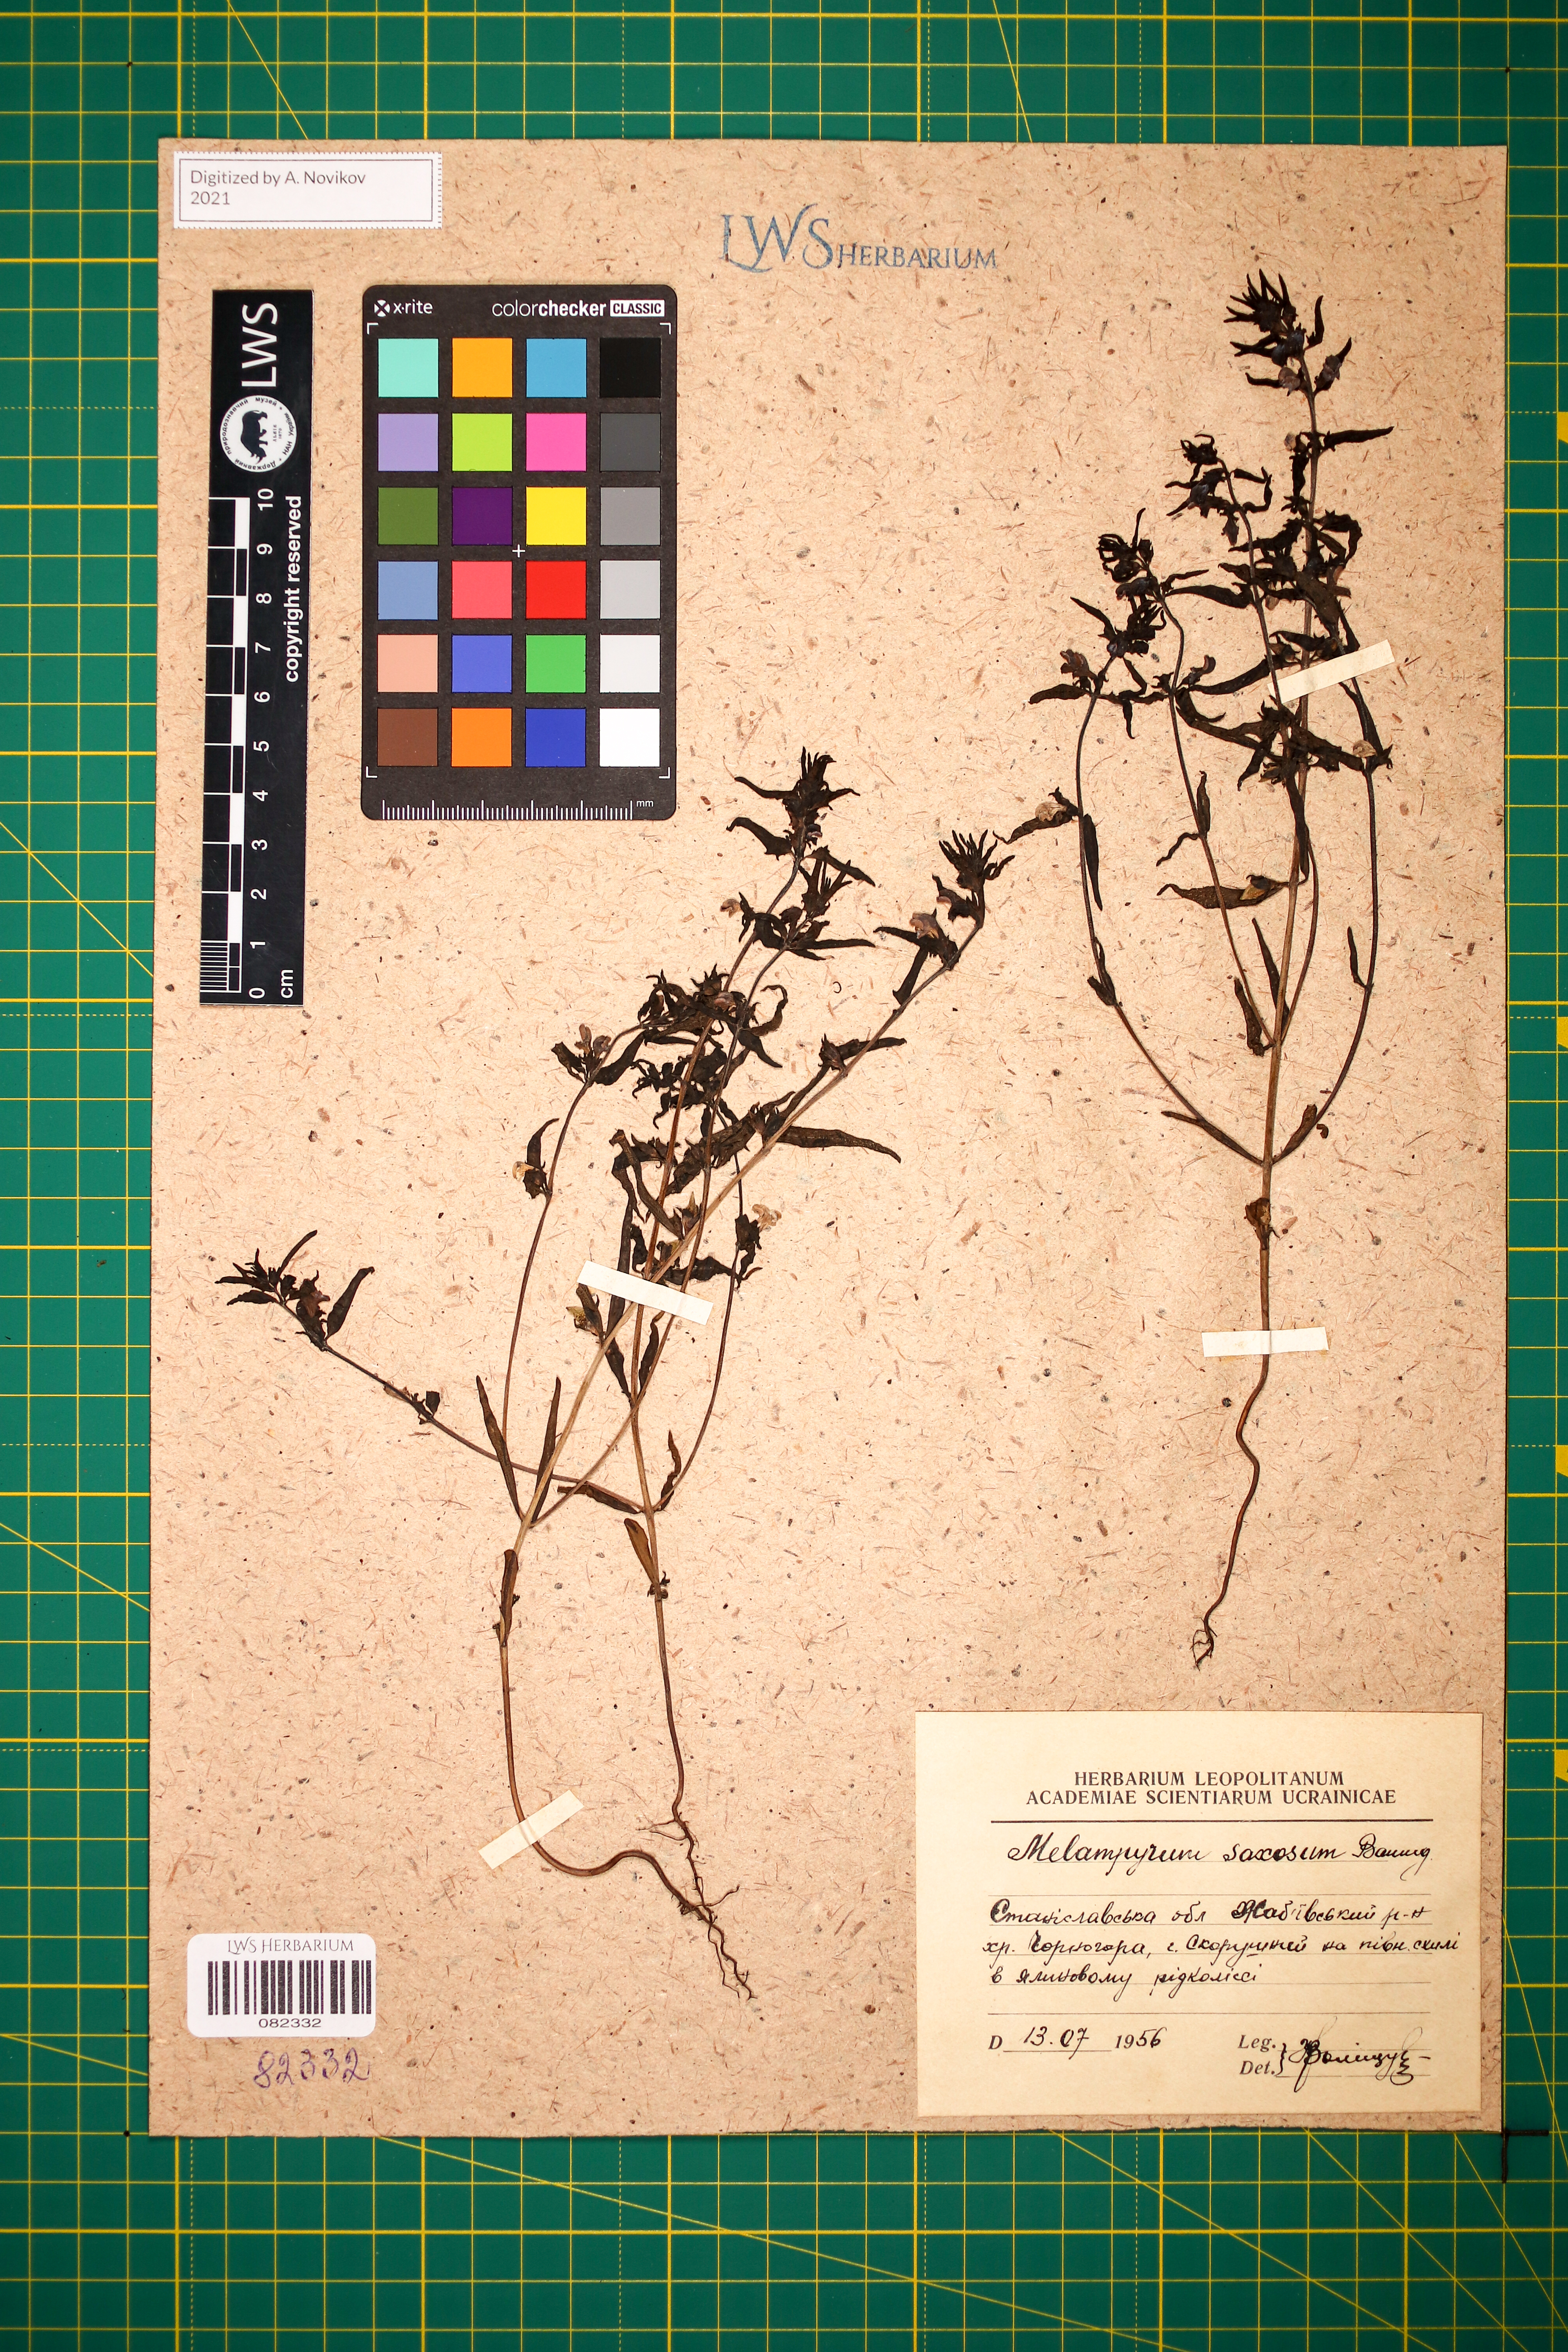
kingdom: Plantae
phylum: Tracheophyta
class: Magnoliopsida
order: Lamiales
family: Orobanchaceae
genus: Melampyrum
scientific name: Melampyrum saxosum
